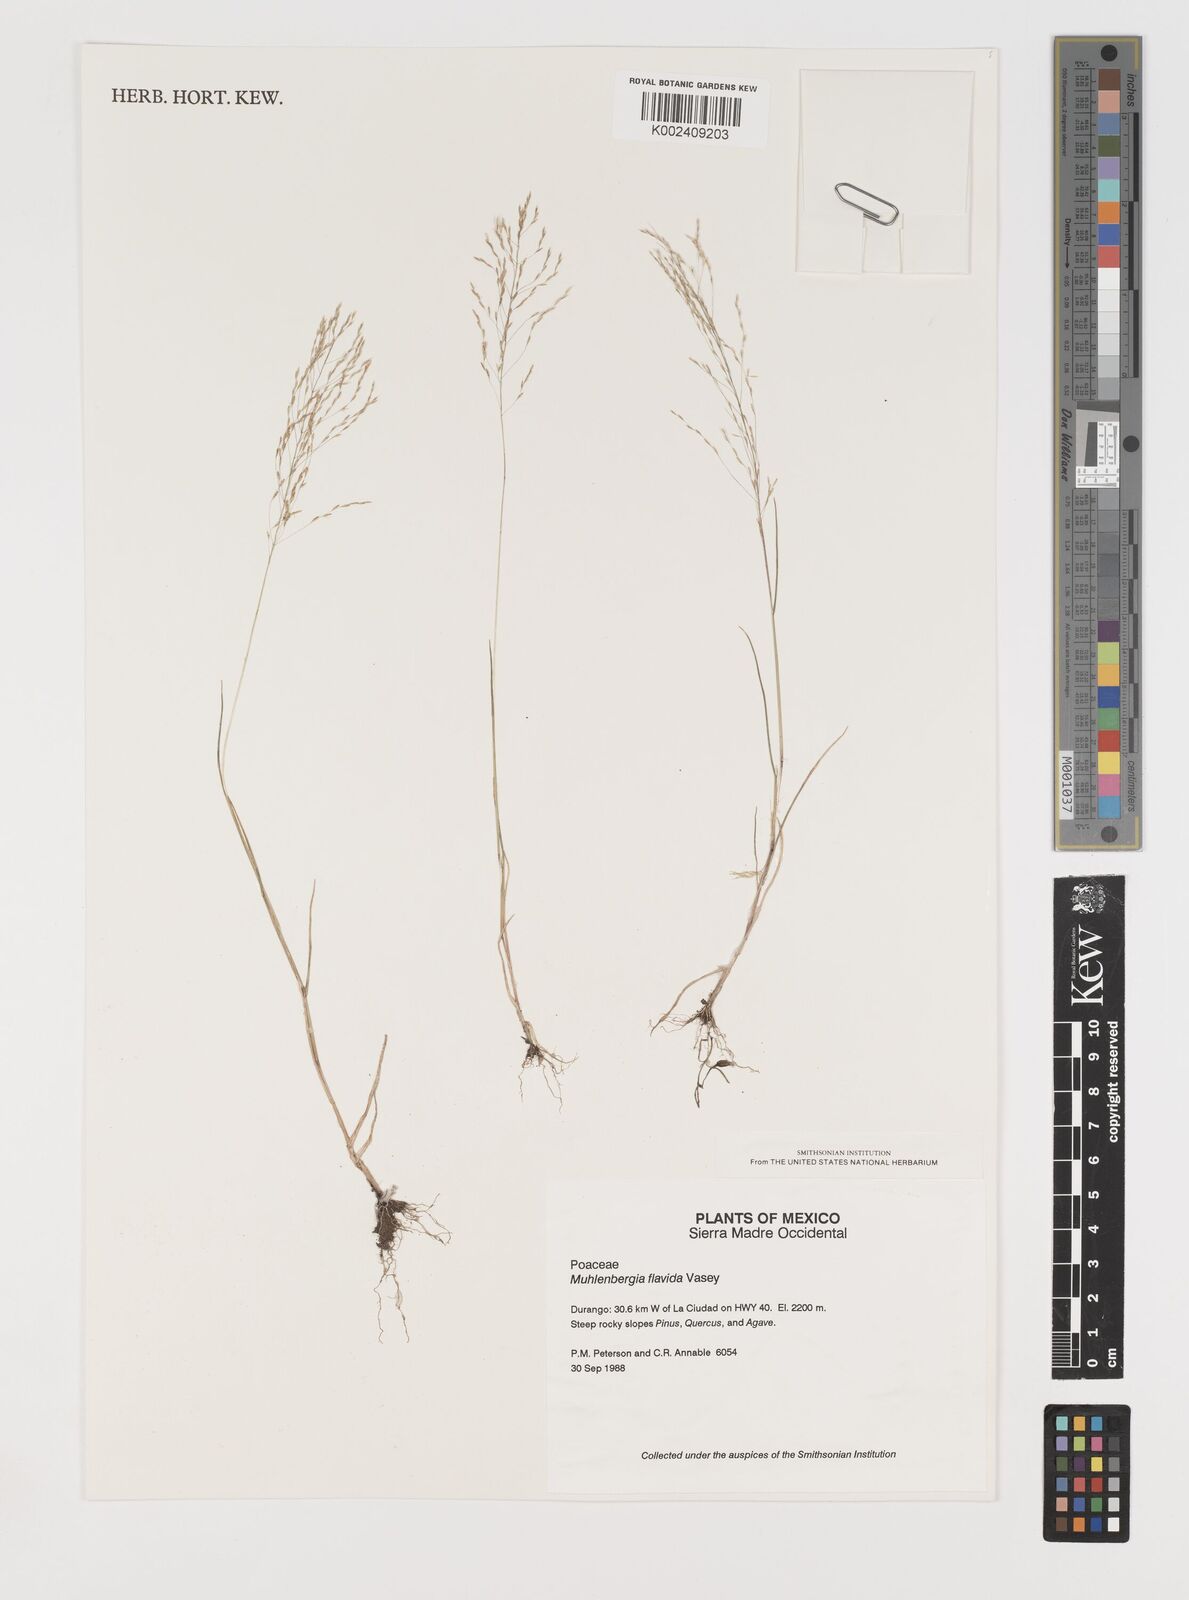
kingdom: Plantae
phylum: Tracheophyta
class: Liliopsida
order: Poales
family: Poaceae
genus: Muhlenbergia
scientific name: Muhlenbergia flavida
